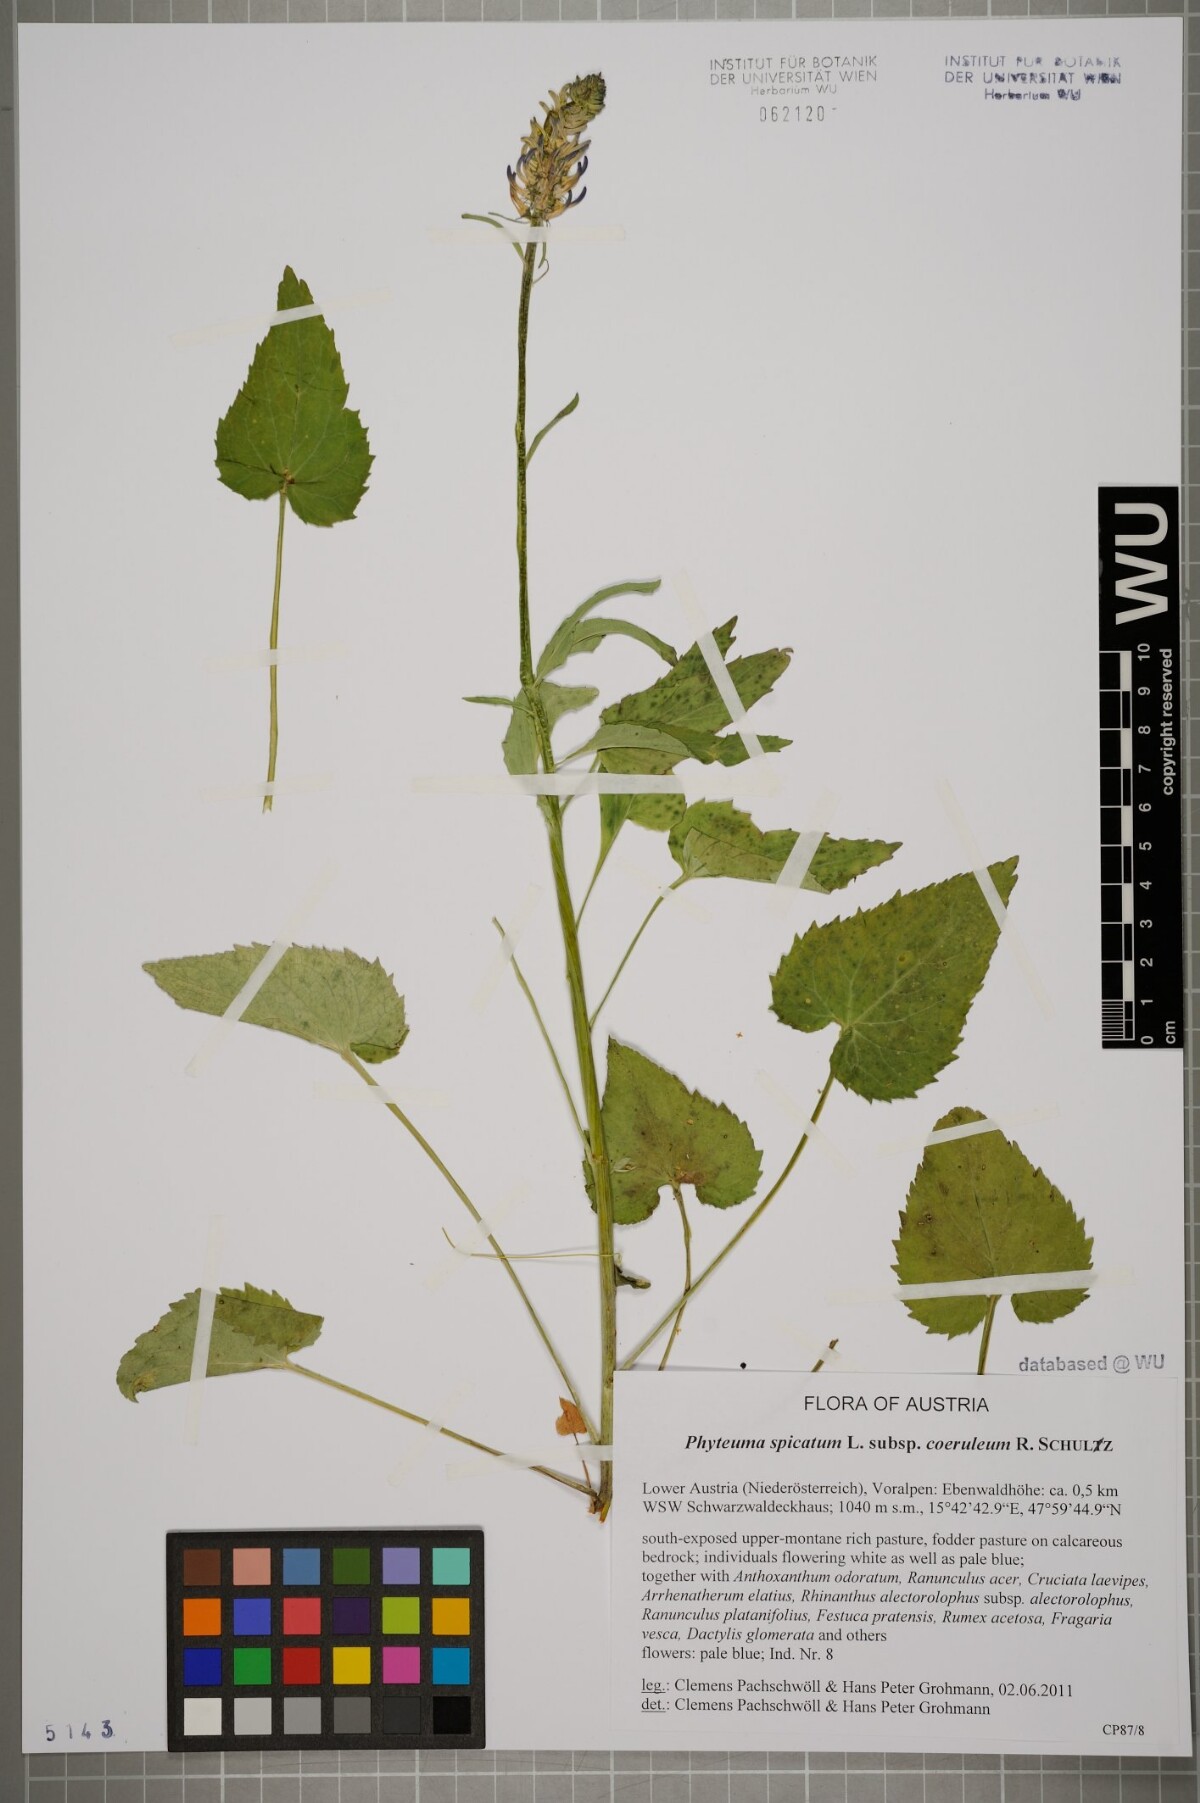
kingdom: Plantae
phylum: Tracheophyta
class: Magnoliopsida
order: Asterales
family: Campanulaceae
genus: Phyteuma
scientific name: Phyteuma spicatum
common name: Spiked rampion
